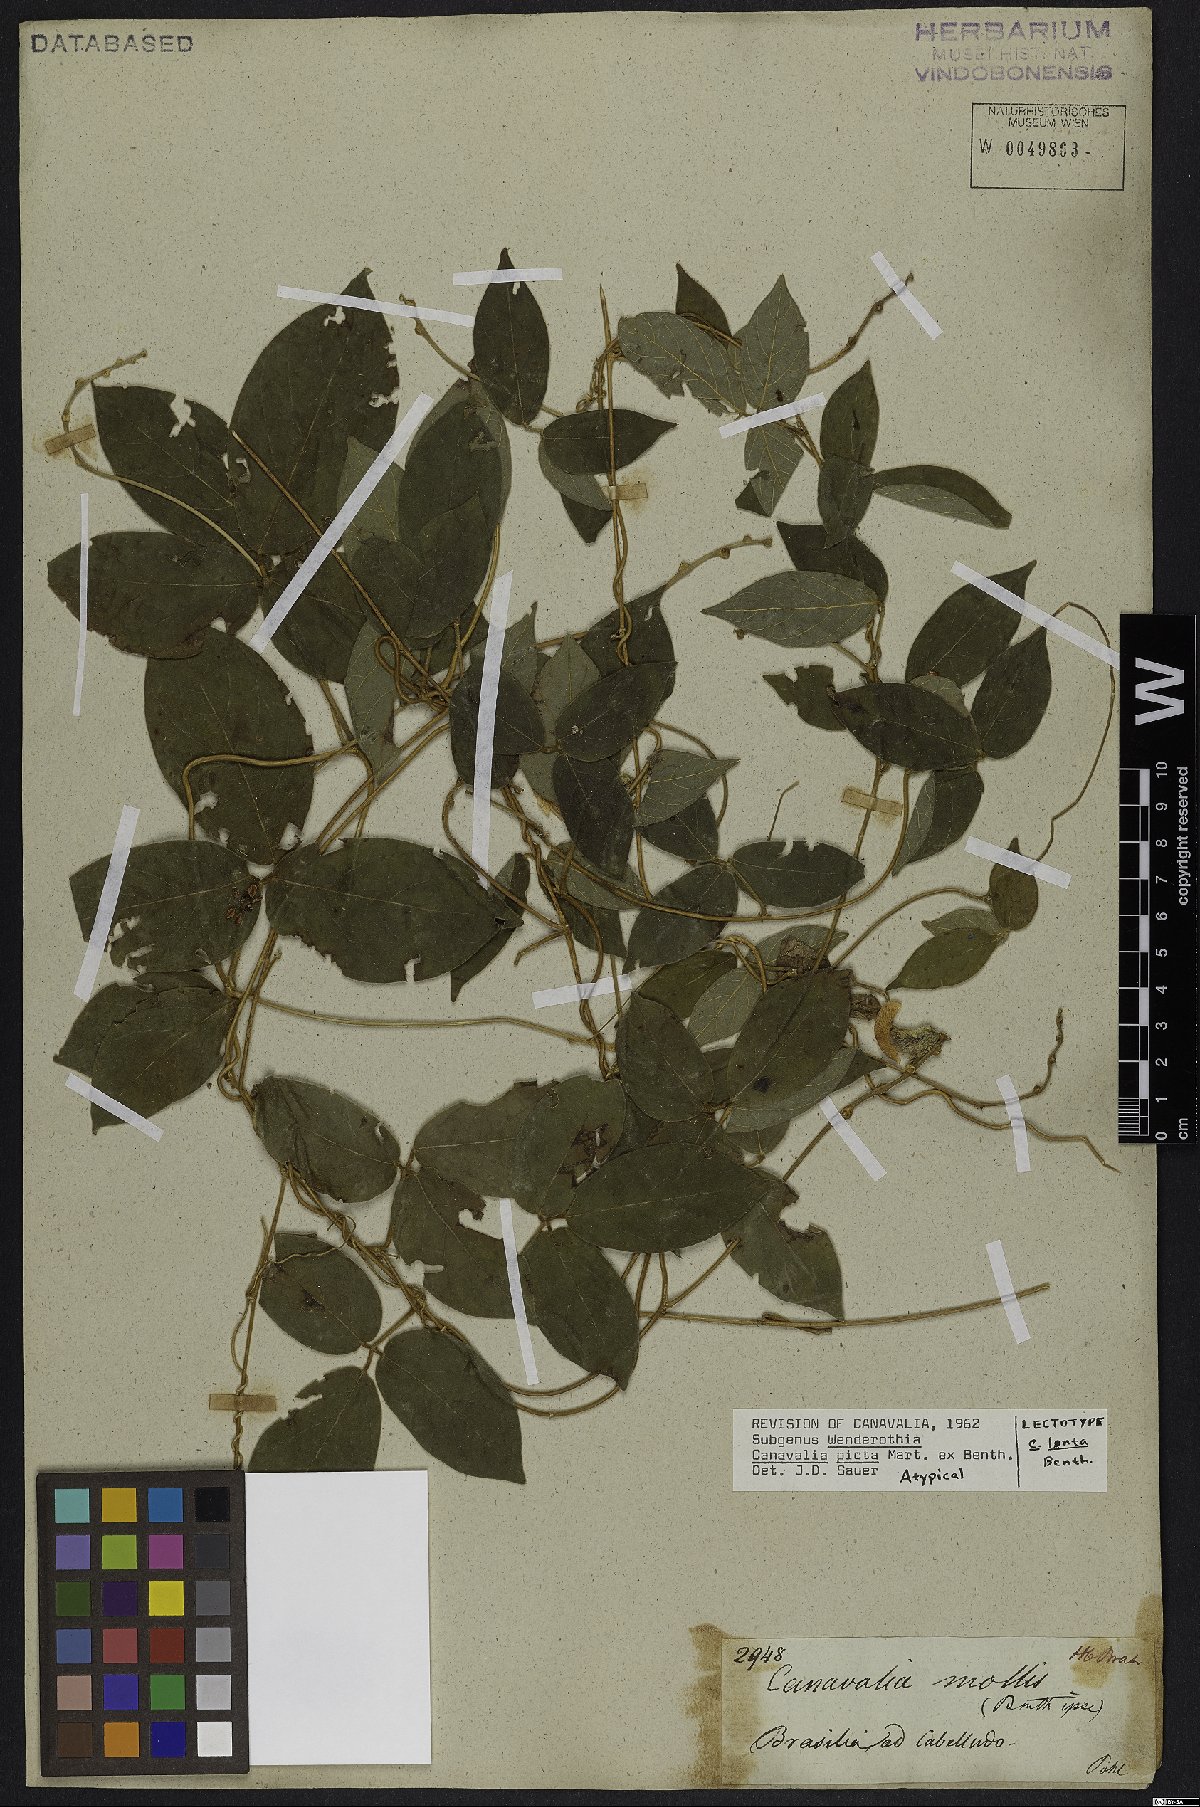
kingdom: Plantae
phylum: Tracheophyta
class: Magnoliopsida
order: Fabales
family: Fabaceae
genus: Canavalia
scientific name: Canavalia picta
